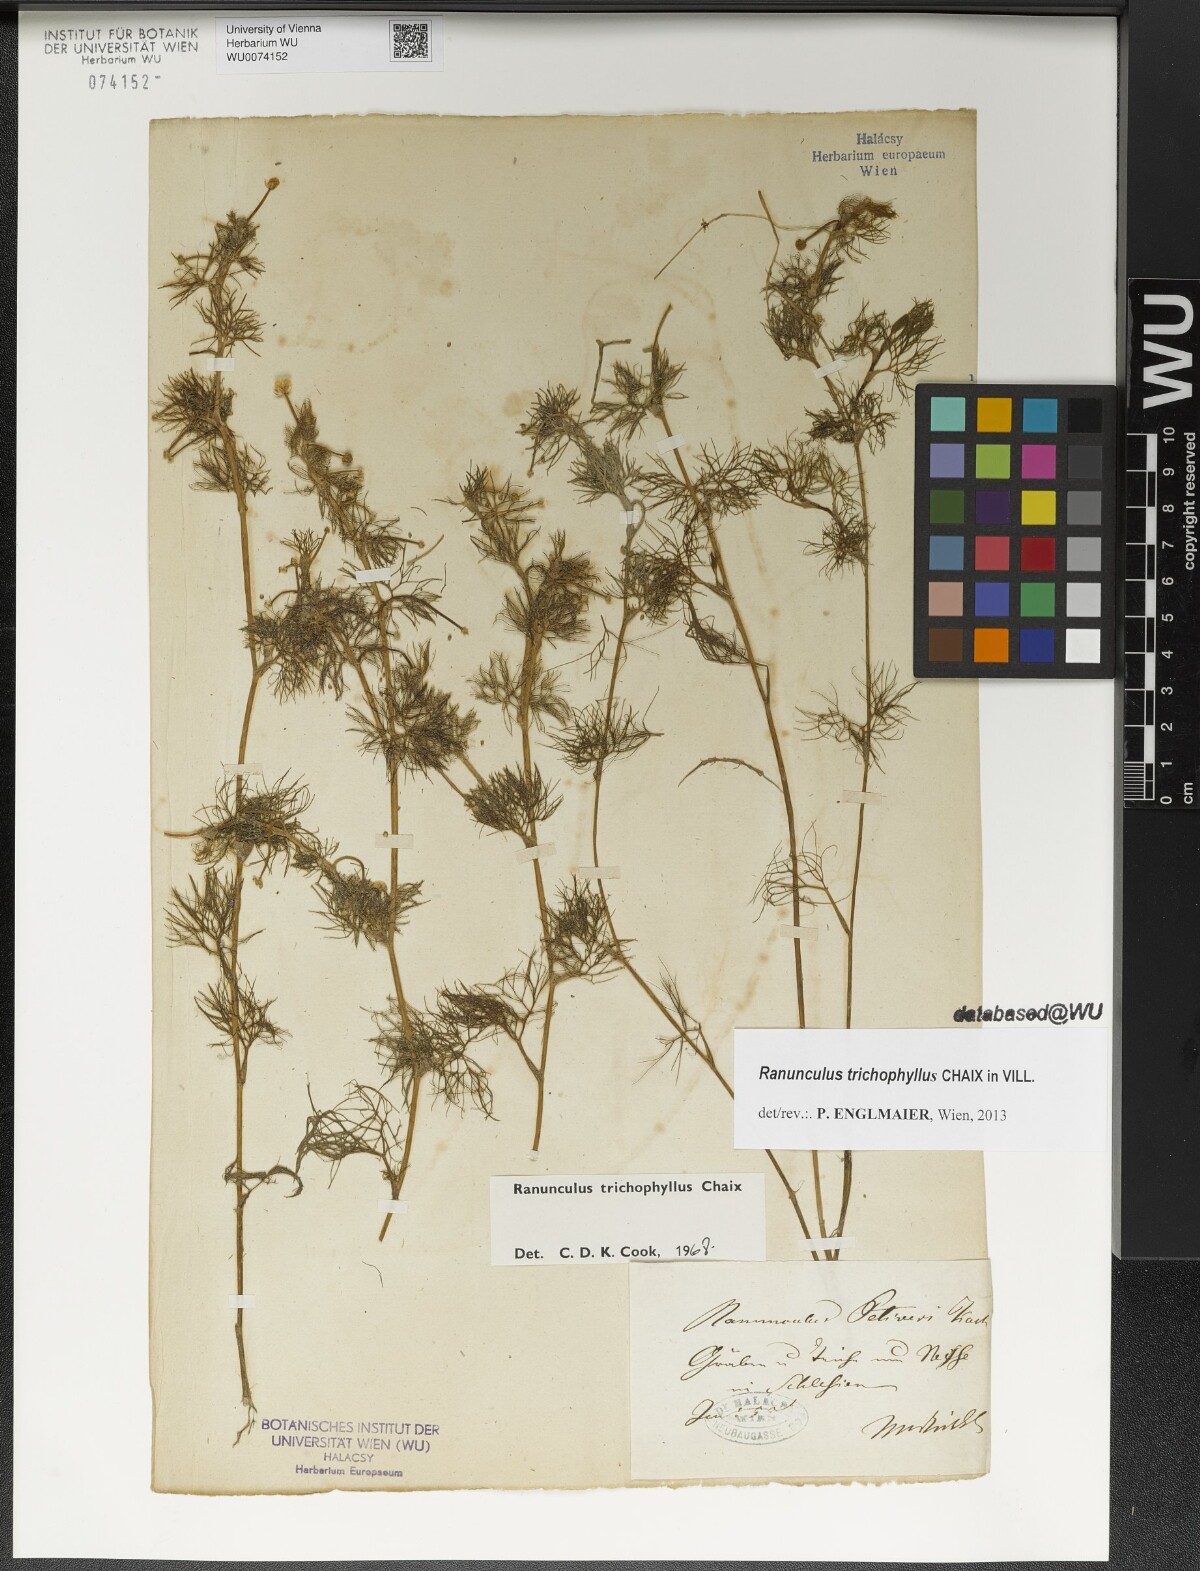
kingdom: Plantae
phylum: Tracheophyta
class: Magnoliopsida
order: Ranunculales
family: Ranunculaceae
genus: Ranunculus
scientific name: Ranunculus trichophyllus
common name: Thread-leaved water-crowfoot
